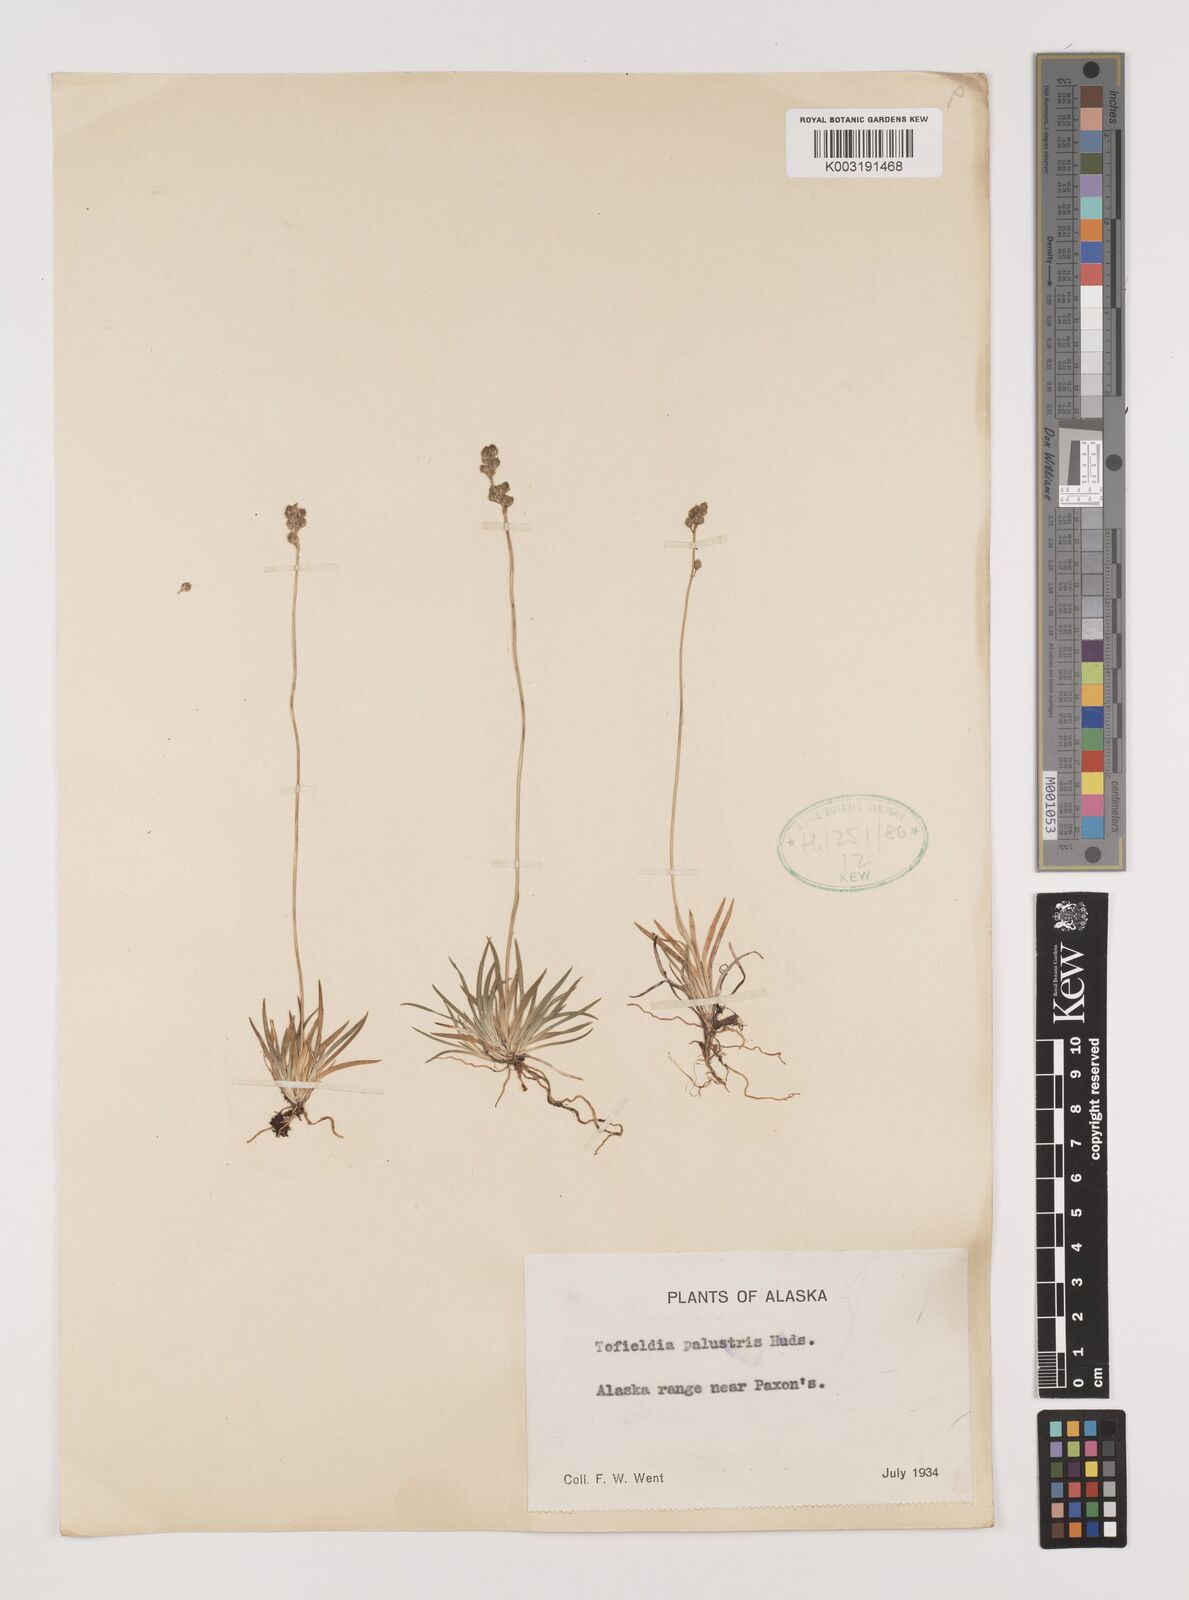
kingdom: Plantae
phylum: Tracheophyta
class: Liliopsida
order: Alismatales
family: Tofieldiaceae
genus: Tofieldia
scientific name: Tofieldia calyculata
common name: German-asphodel
